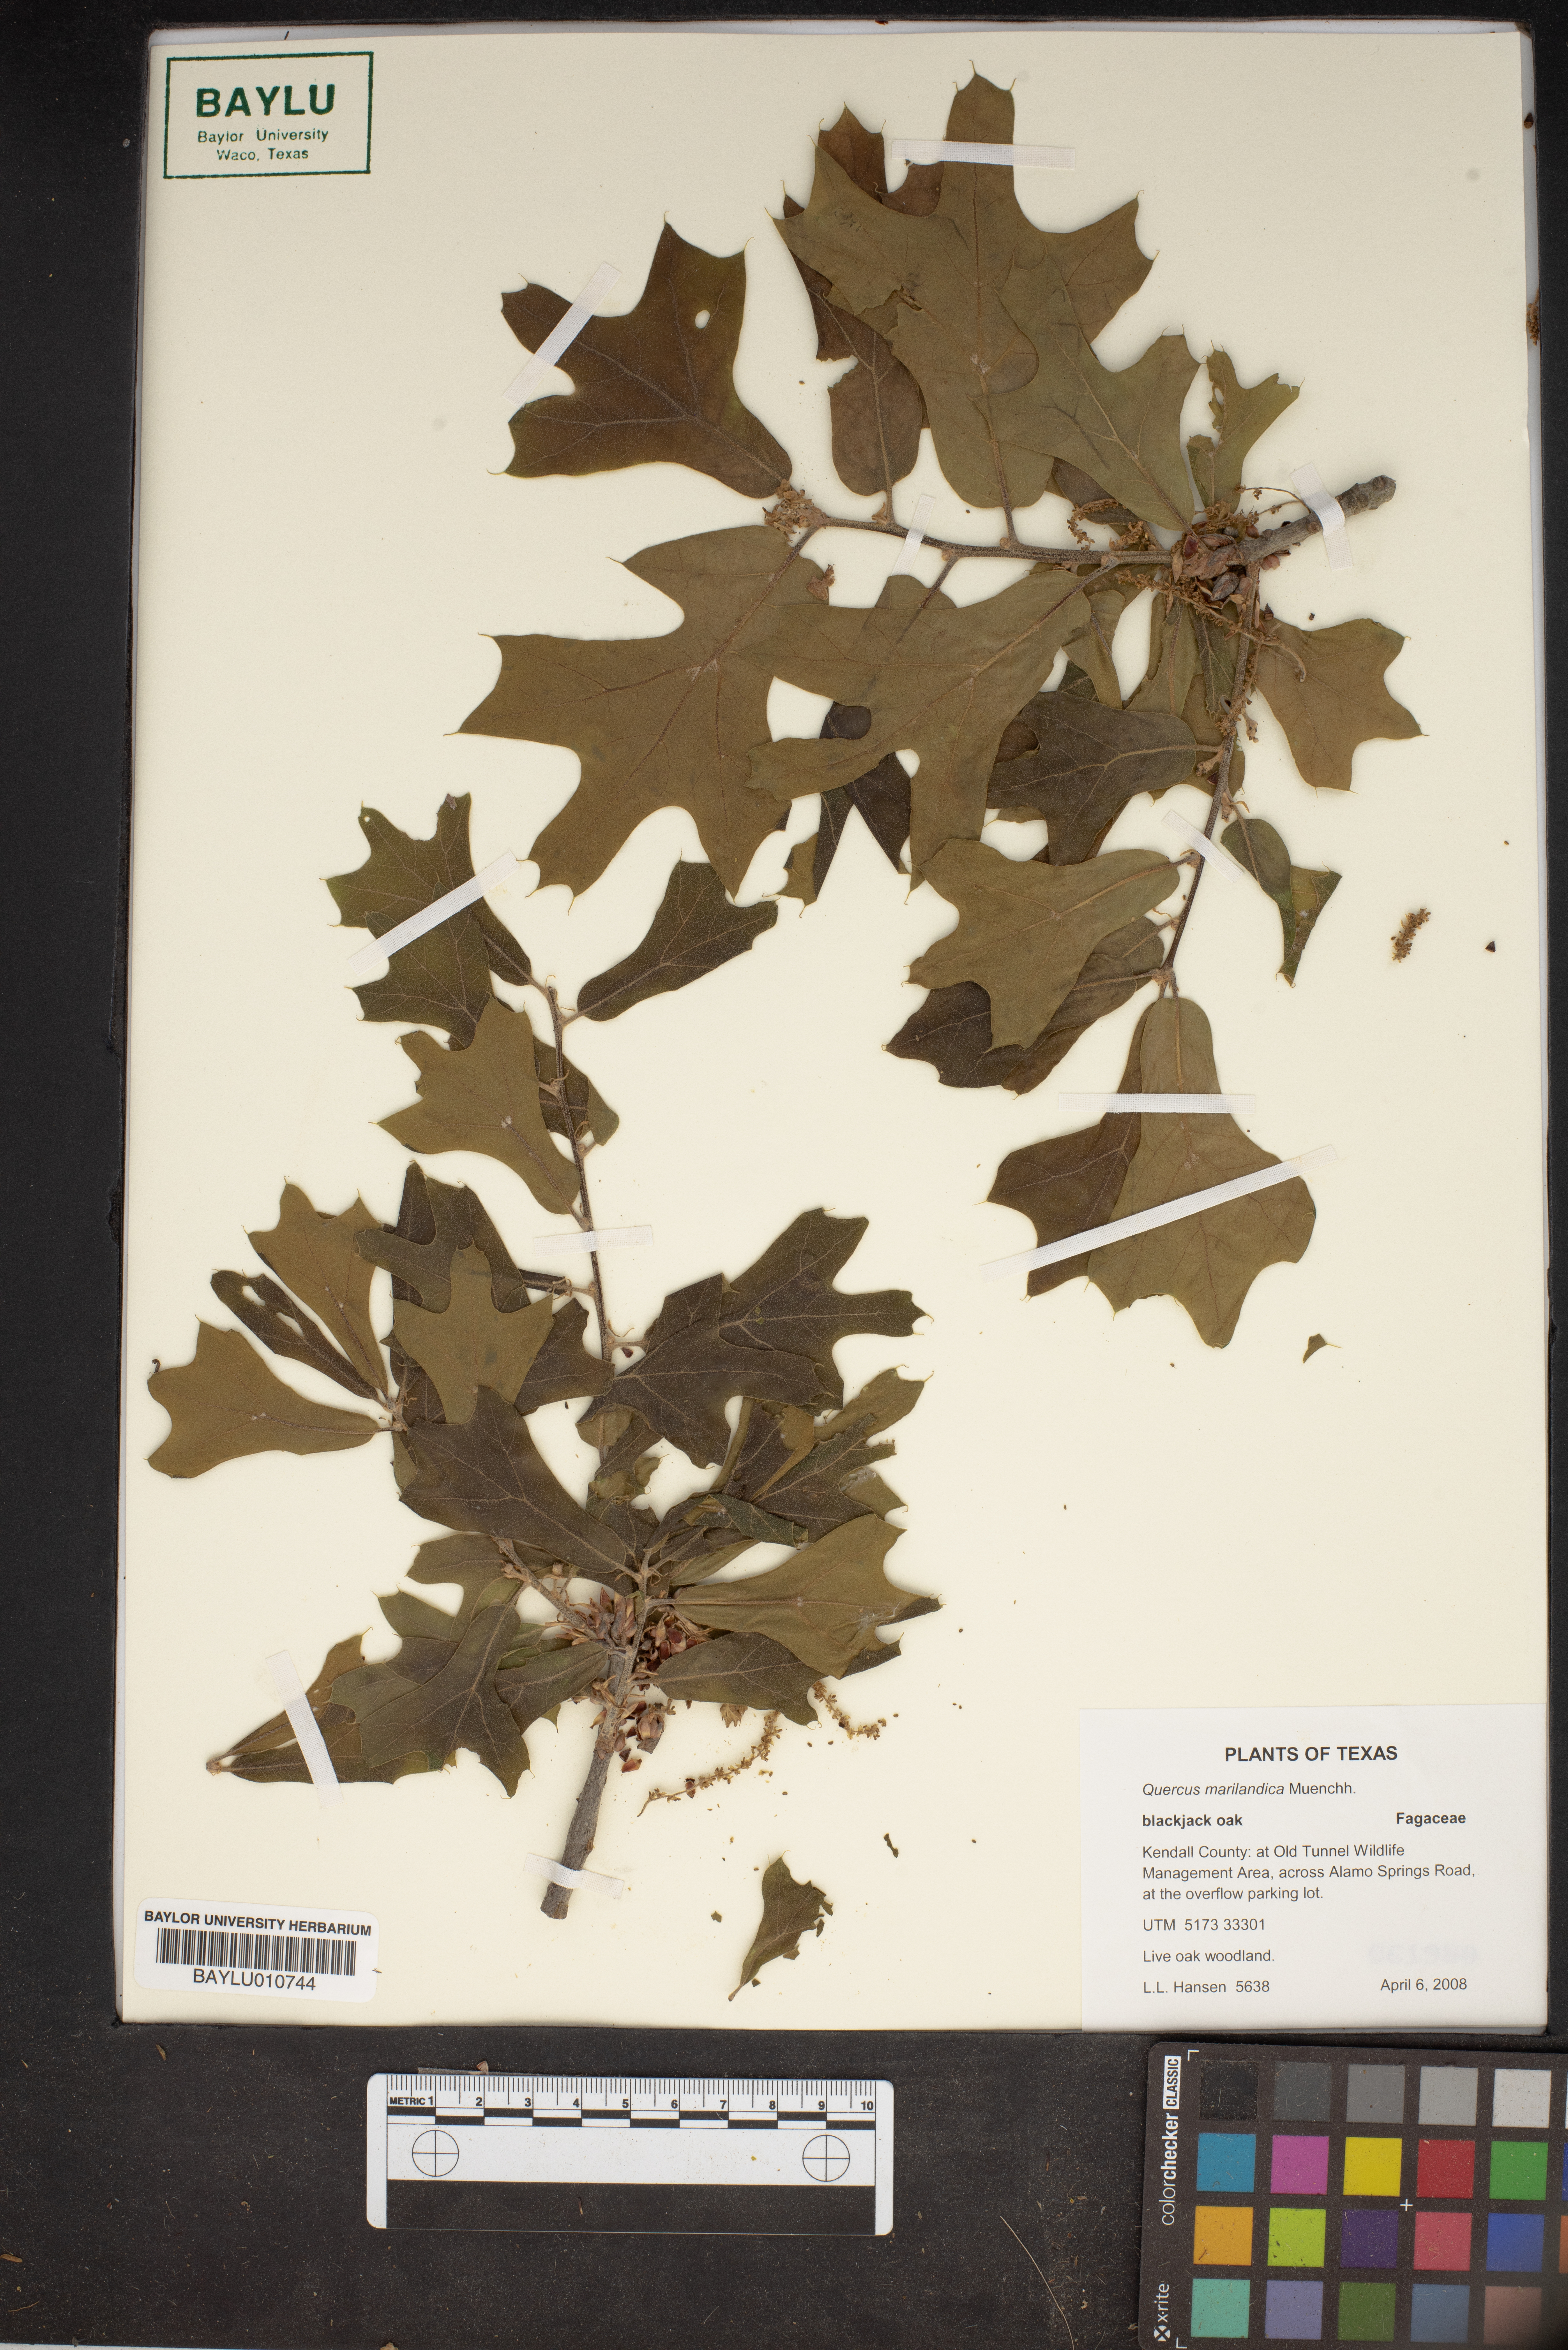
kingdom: Plantae
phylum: Tracheophyta
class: Magnoliopsida
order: Fagales
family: Fagaceae
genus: Quercus
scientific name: Quercus marilandica
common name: Blackjack oak
